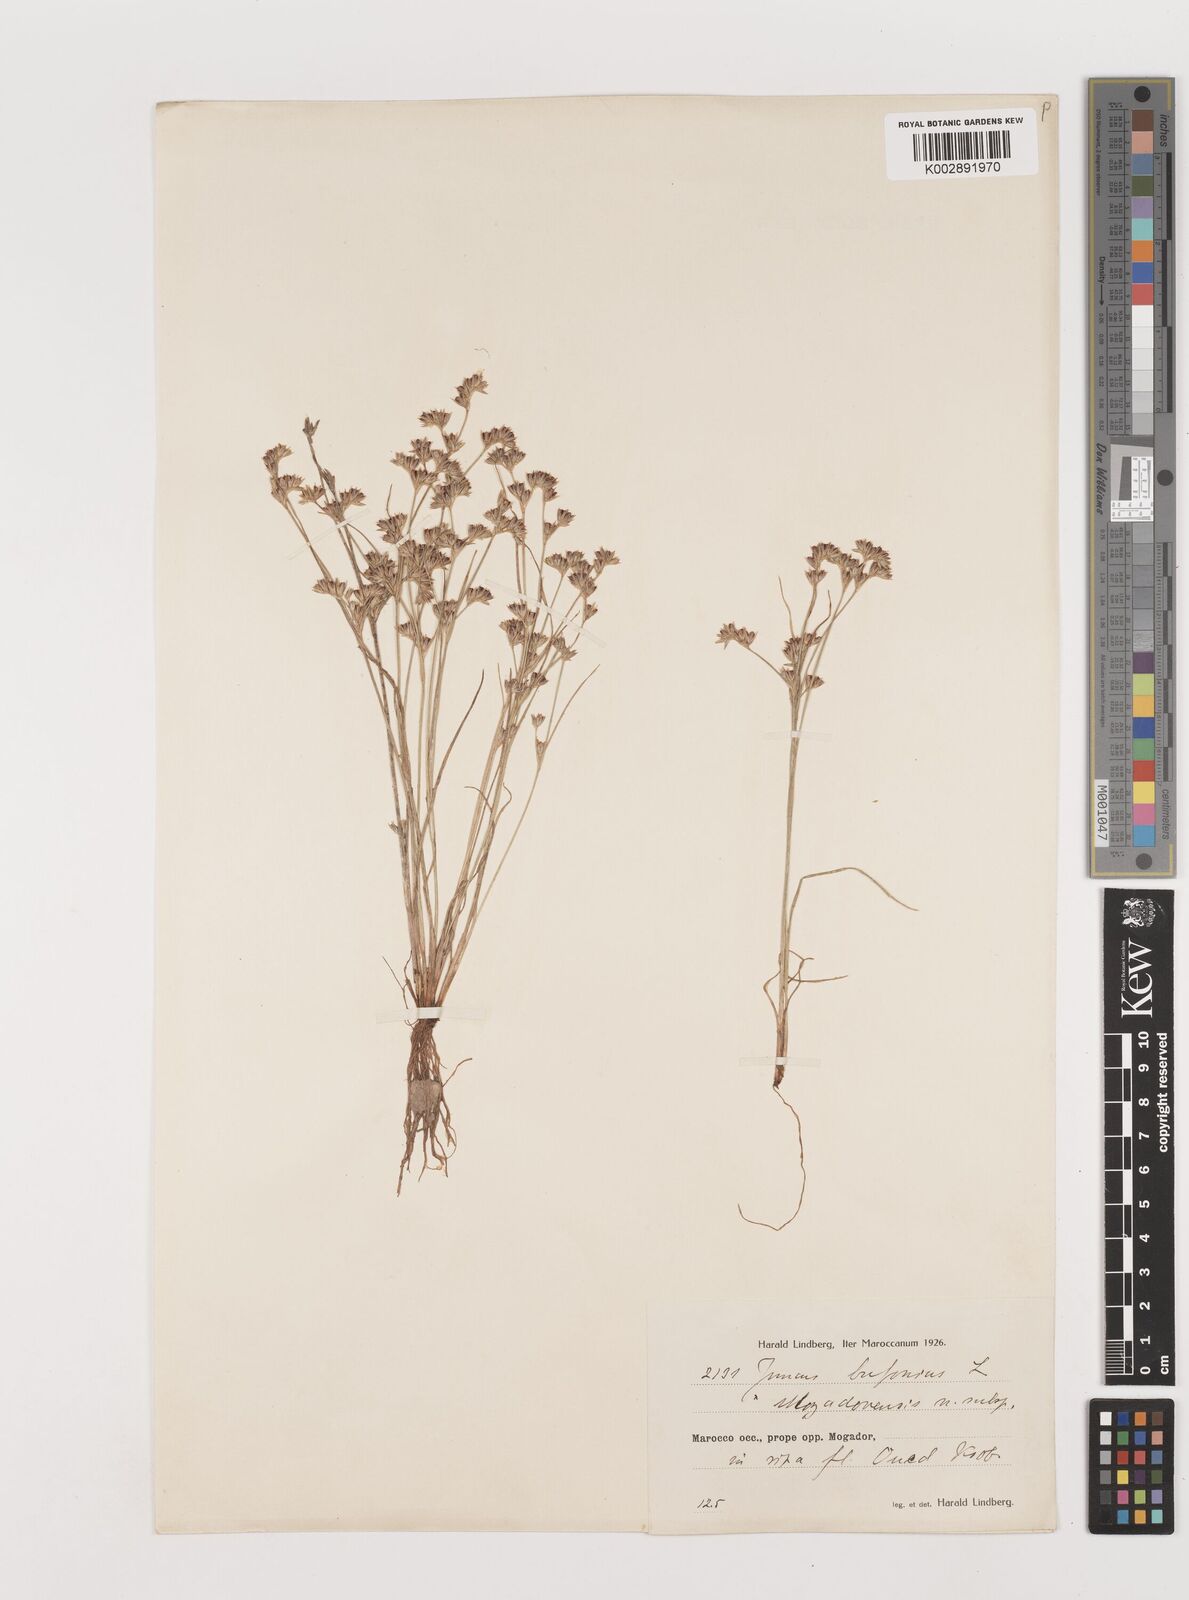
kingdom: Plantae
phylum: Tracheophyta
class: Liliopsida
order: Poales
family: Juncaceae
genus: Juncus
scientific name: Juncus bufonius
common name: Toad rush
